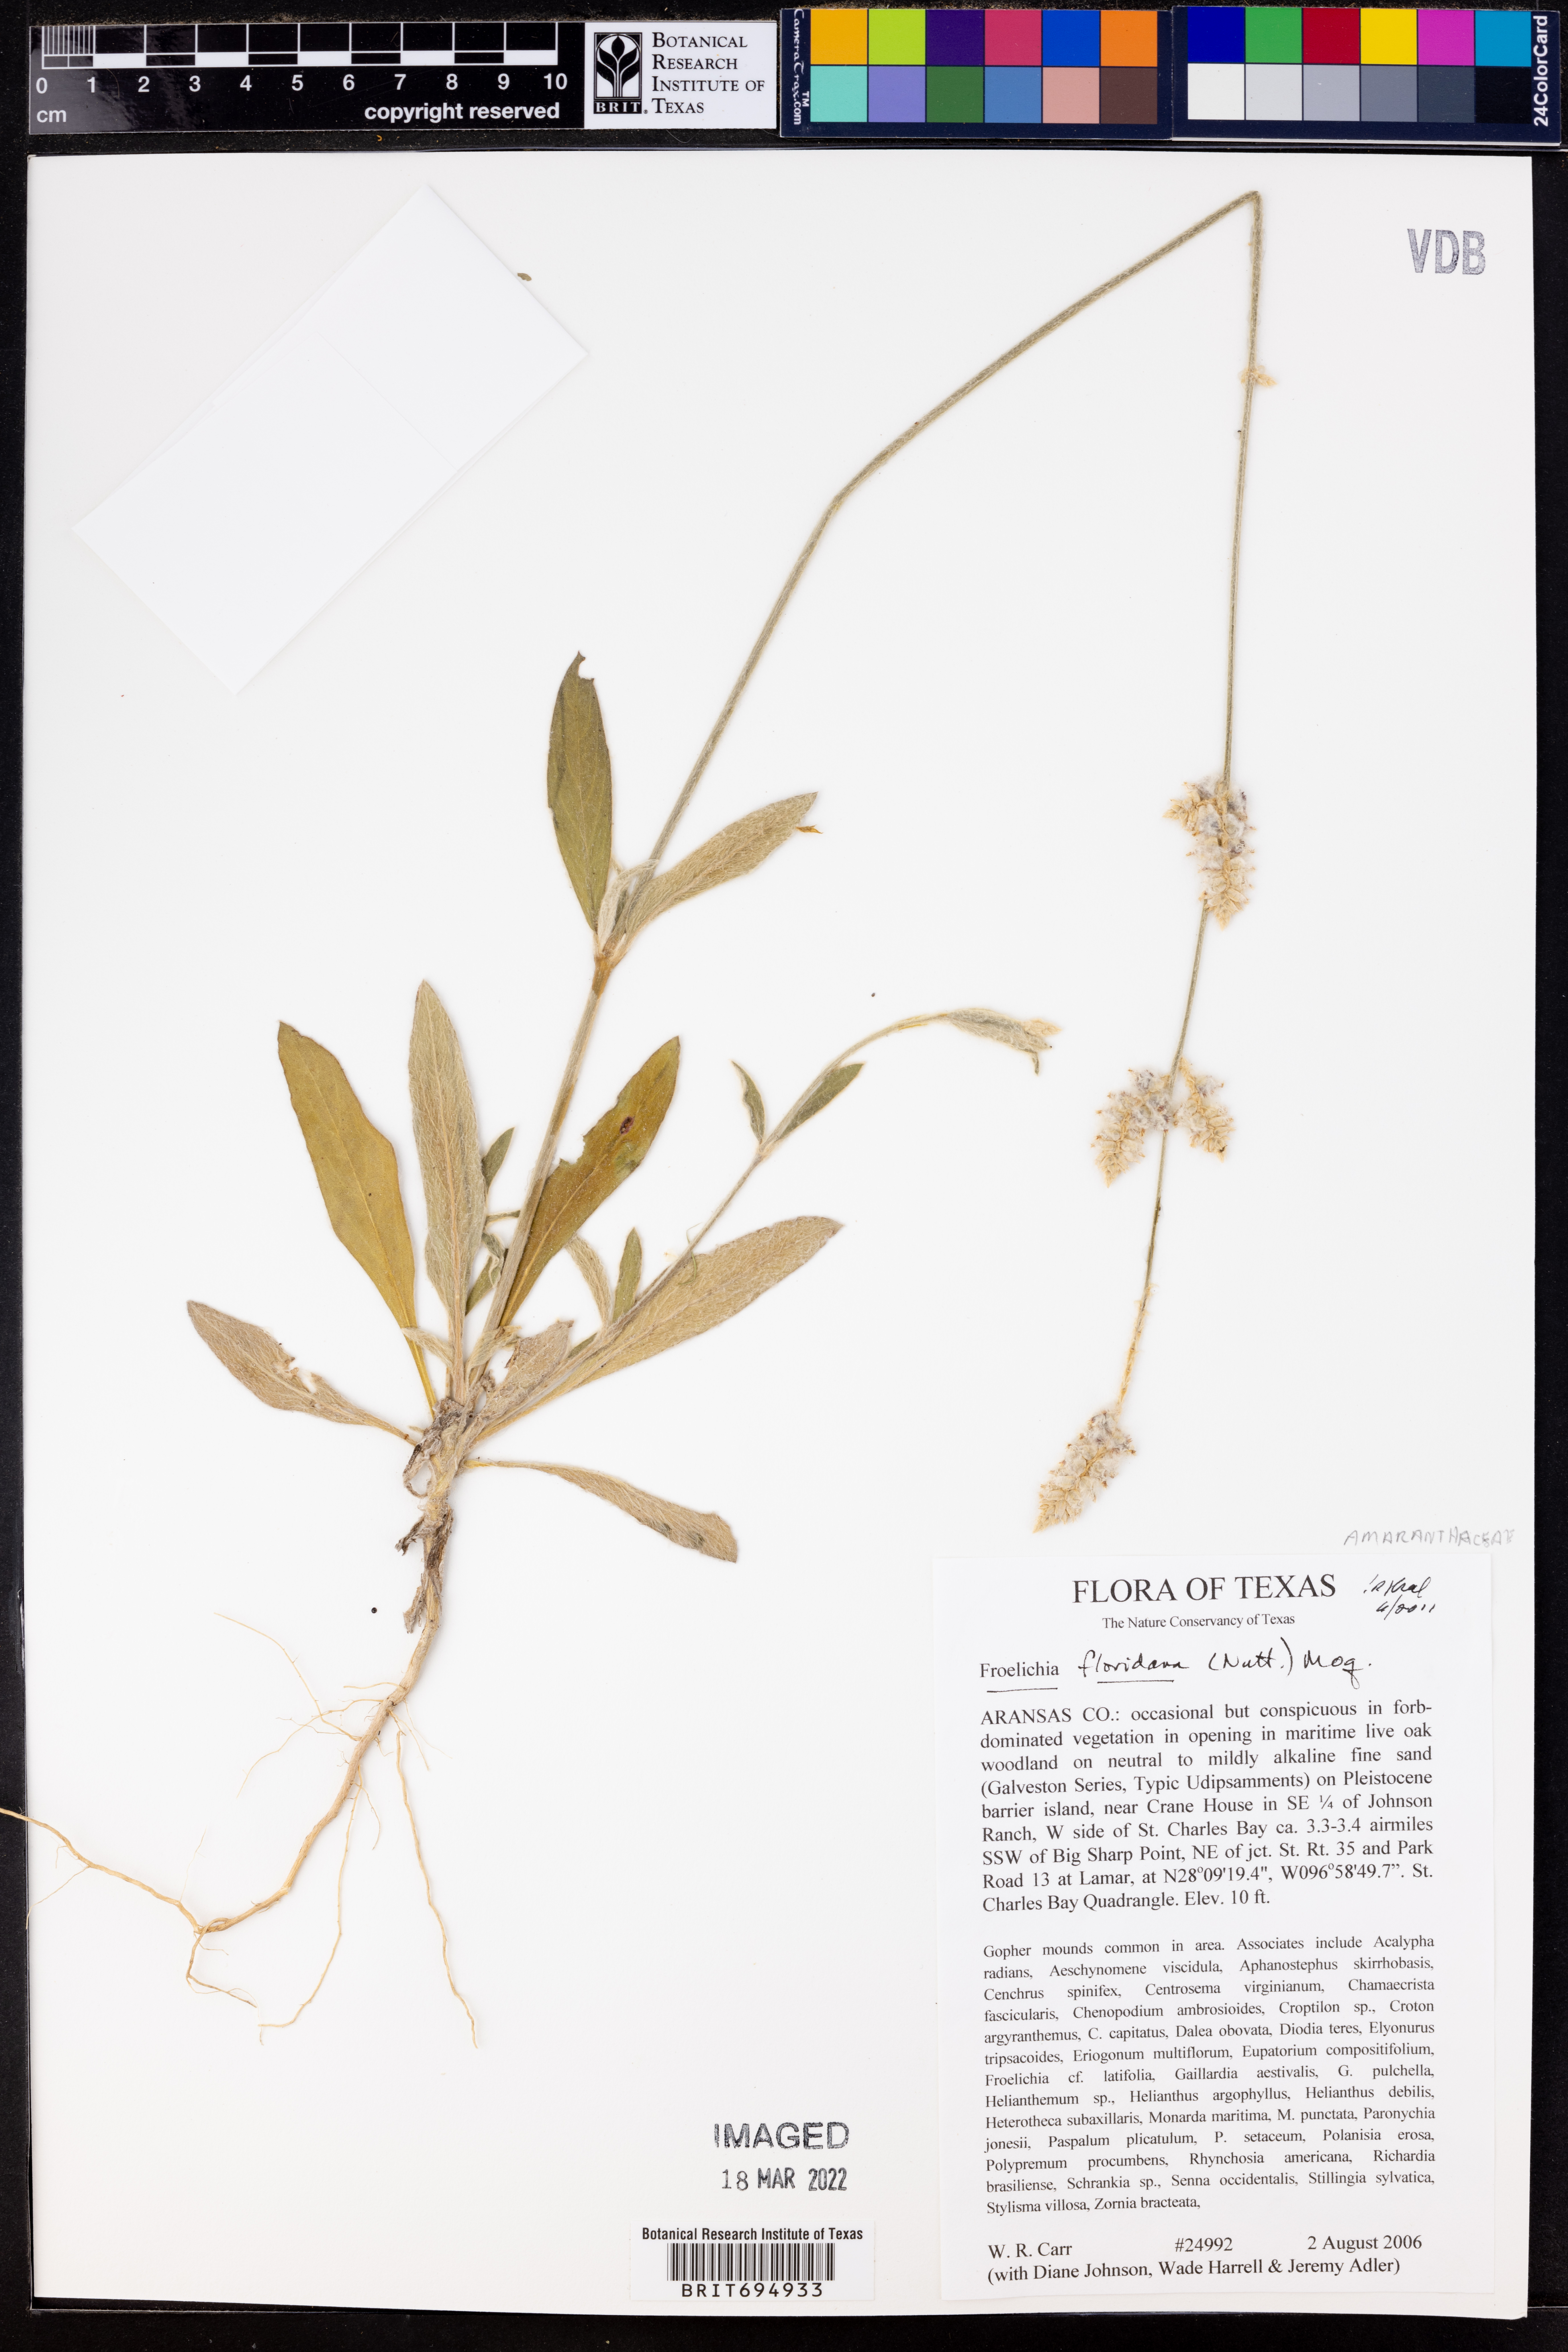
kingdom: Plantae
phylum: Tracheophyta
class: Magnoliopsida
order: Caryophyllales
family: Amaranthaceae
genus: Froelichia
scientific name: Froelichia floridana
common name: Florida snake-cotton
